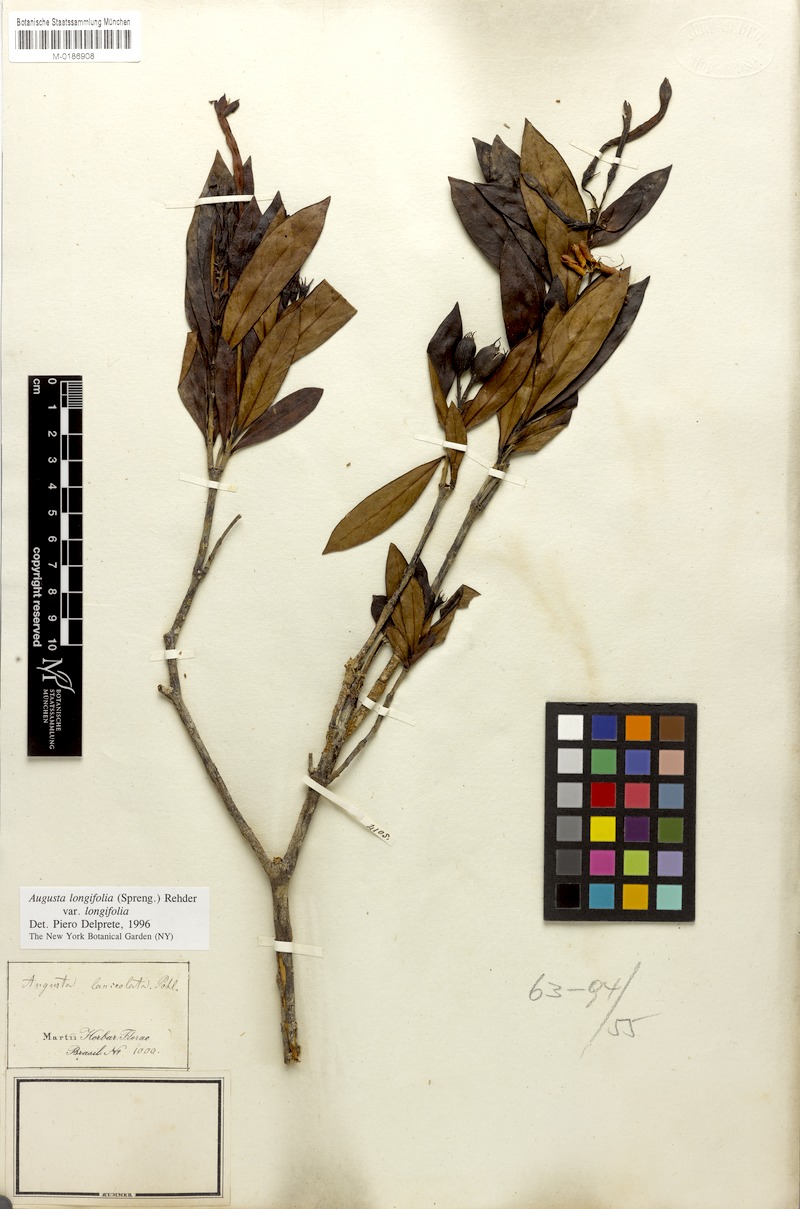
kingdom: Plantae
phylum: Tracheophyta
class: Magnoliopsida
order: Gentianales
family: Rubiaceae
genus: Augusta
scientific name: Augusta longifolia
